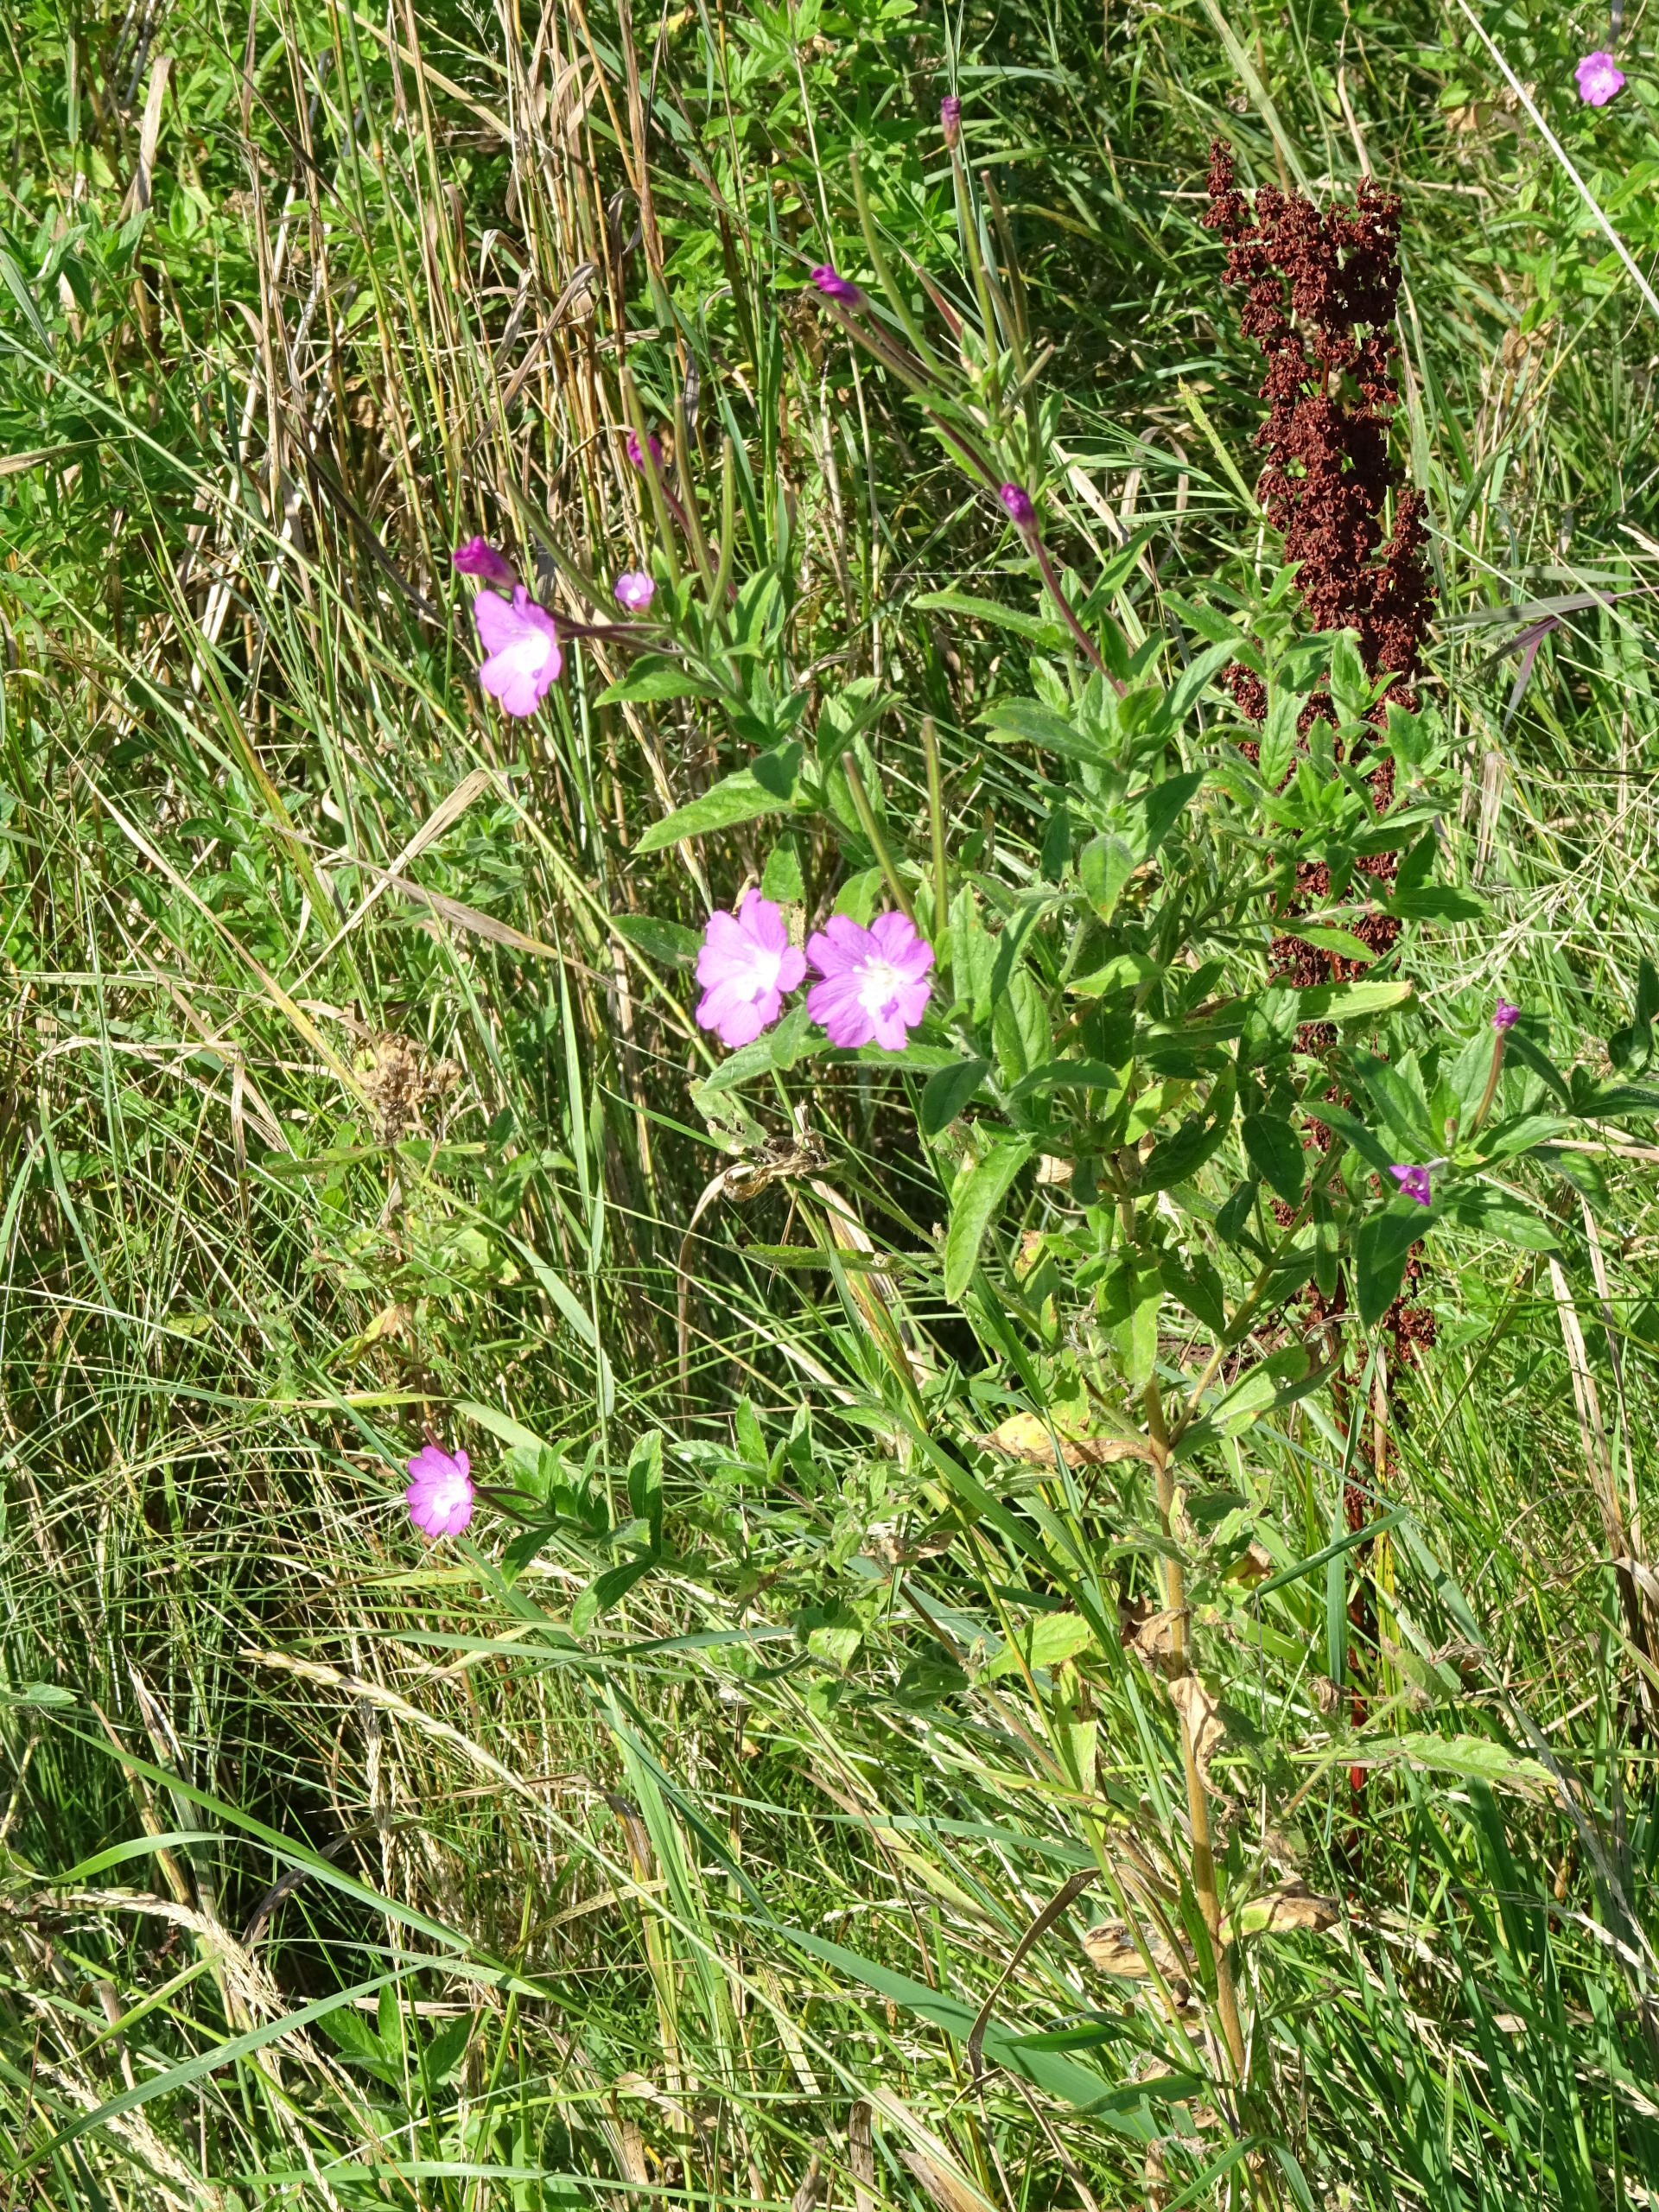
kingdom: Plantae
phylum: Tracheophyta
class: Magnoliopsida
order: Myrtales
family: Onagraceae
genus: Epilobium
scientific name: Epilobium hirsutum
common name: Lådden dueurt
